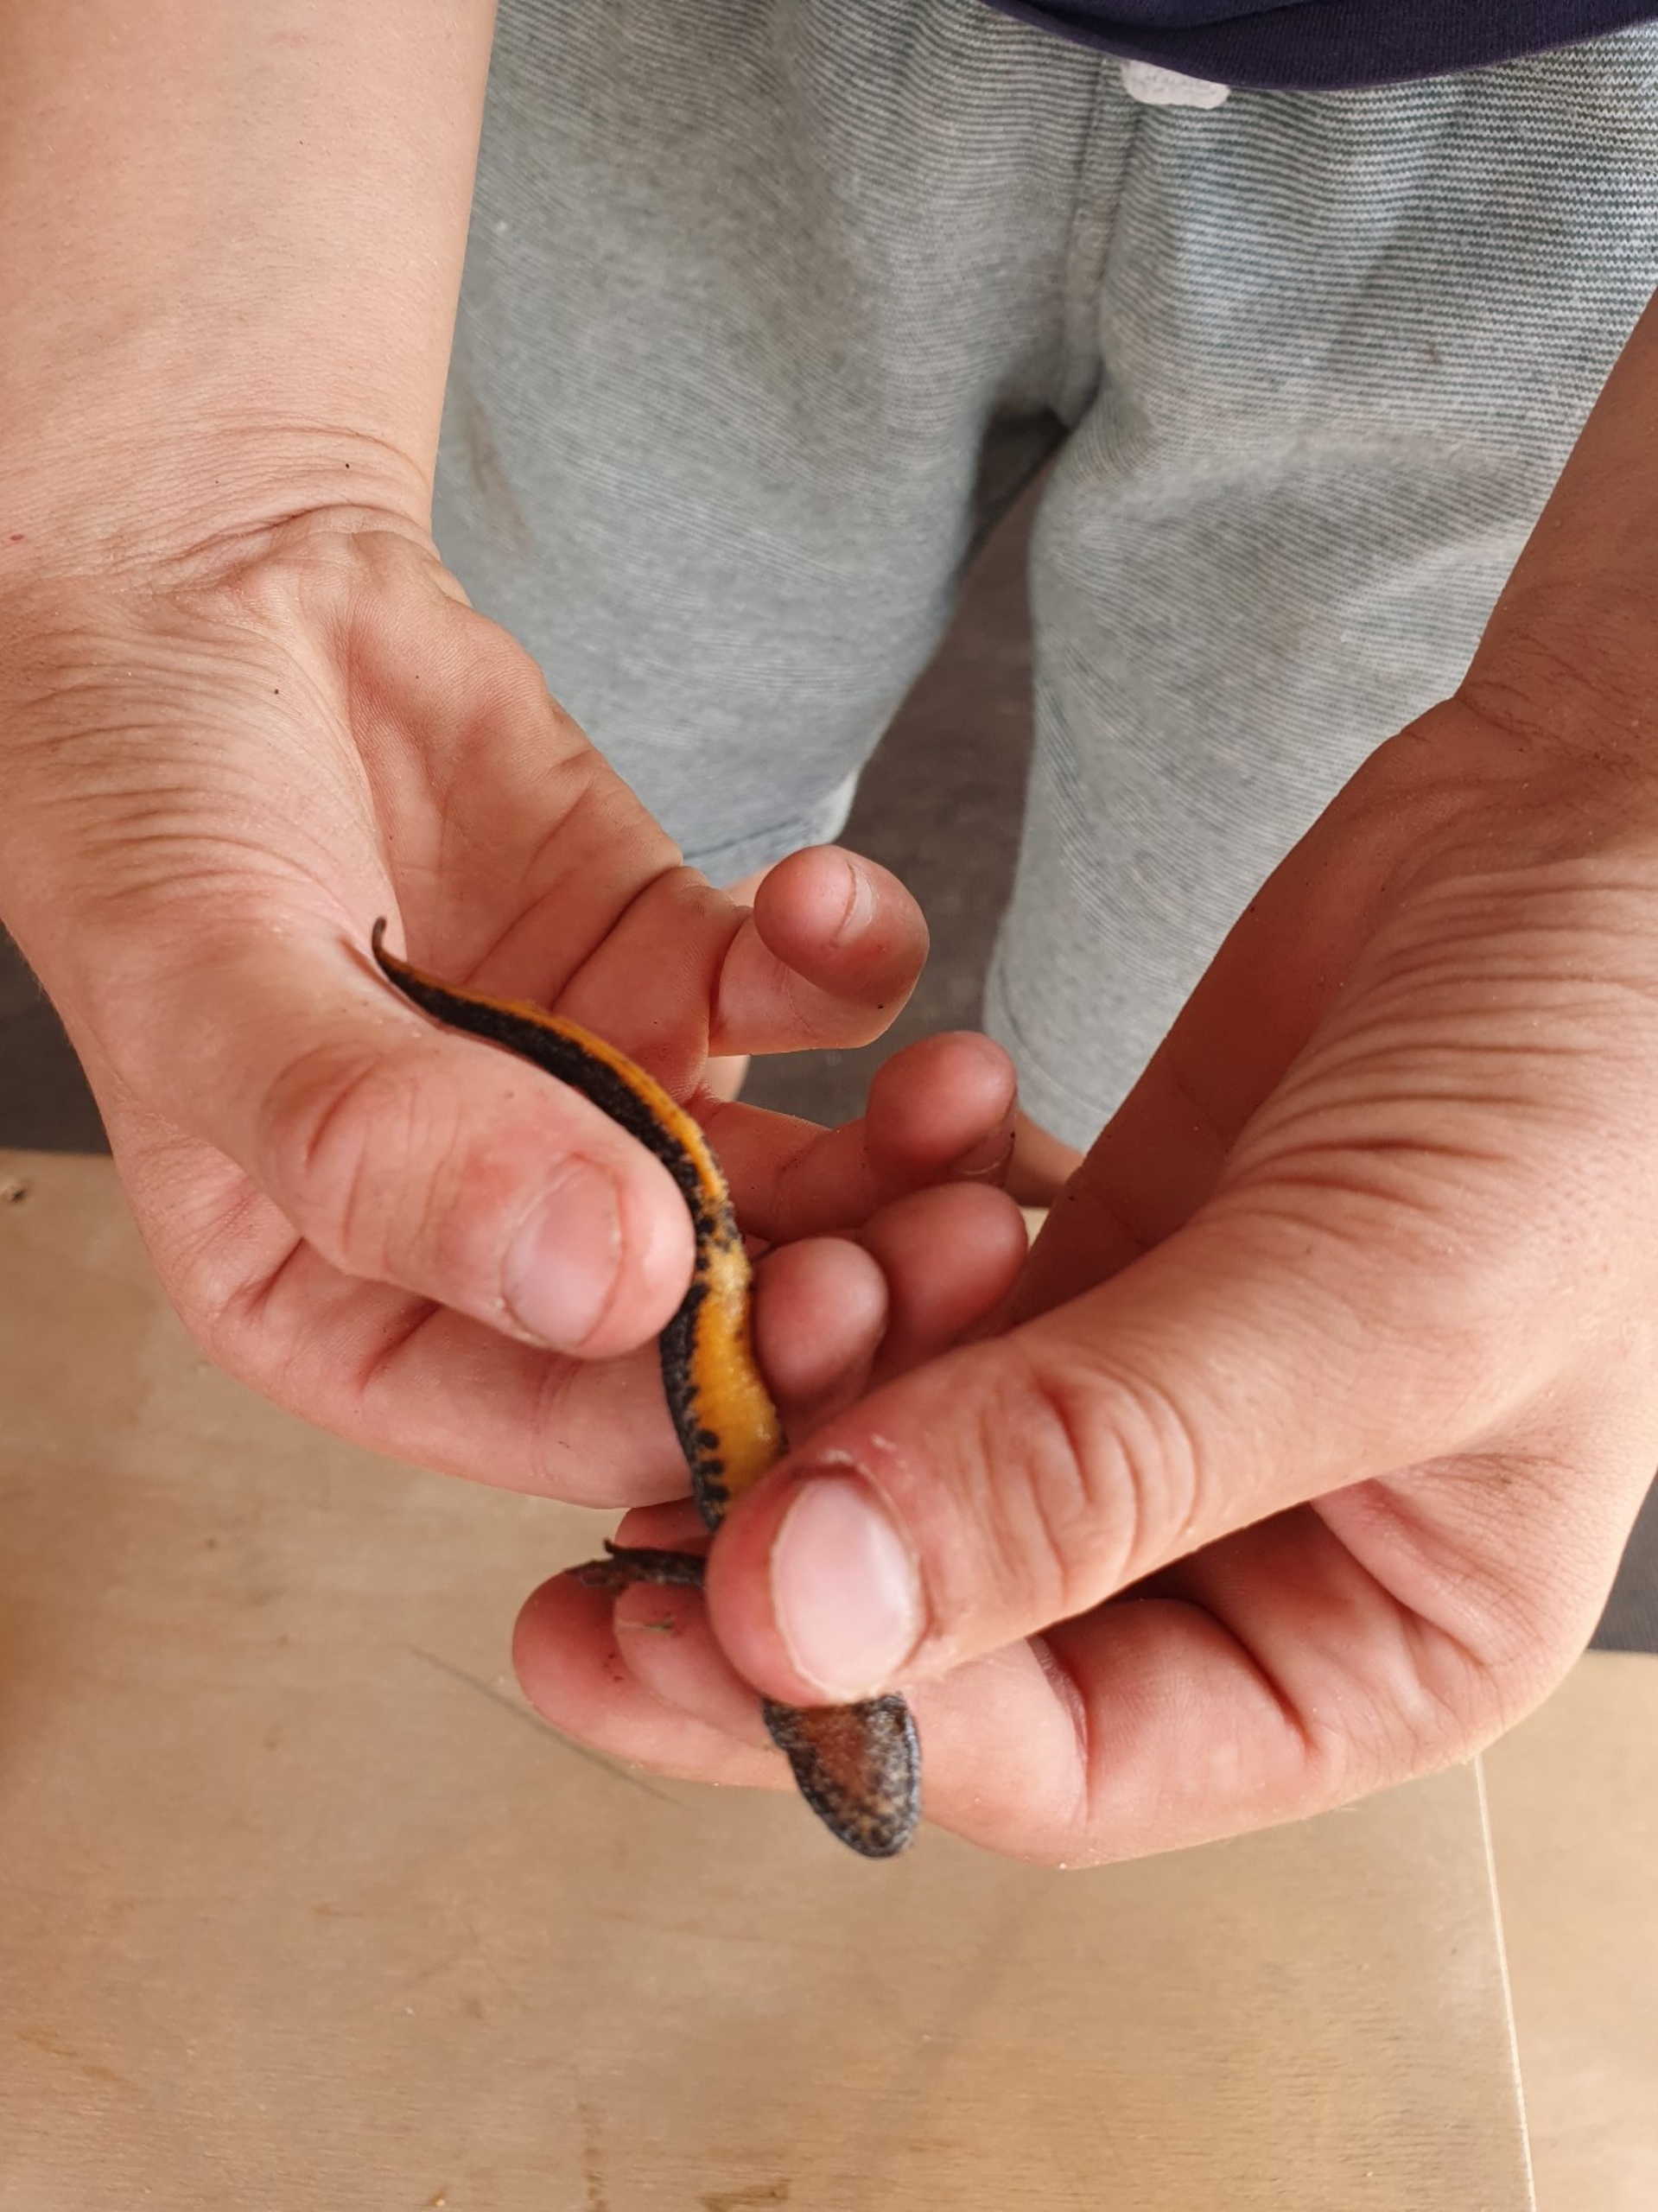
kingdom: Animalia
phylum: Chordata
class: Amphibia
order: Caudata
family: Salamandridae
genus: Triturus
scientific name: Triturus cristatus
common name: Stor vandsalamander
